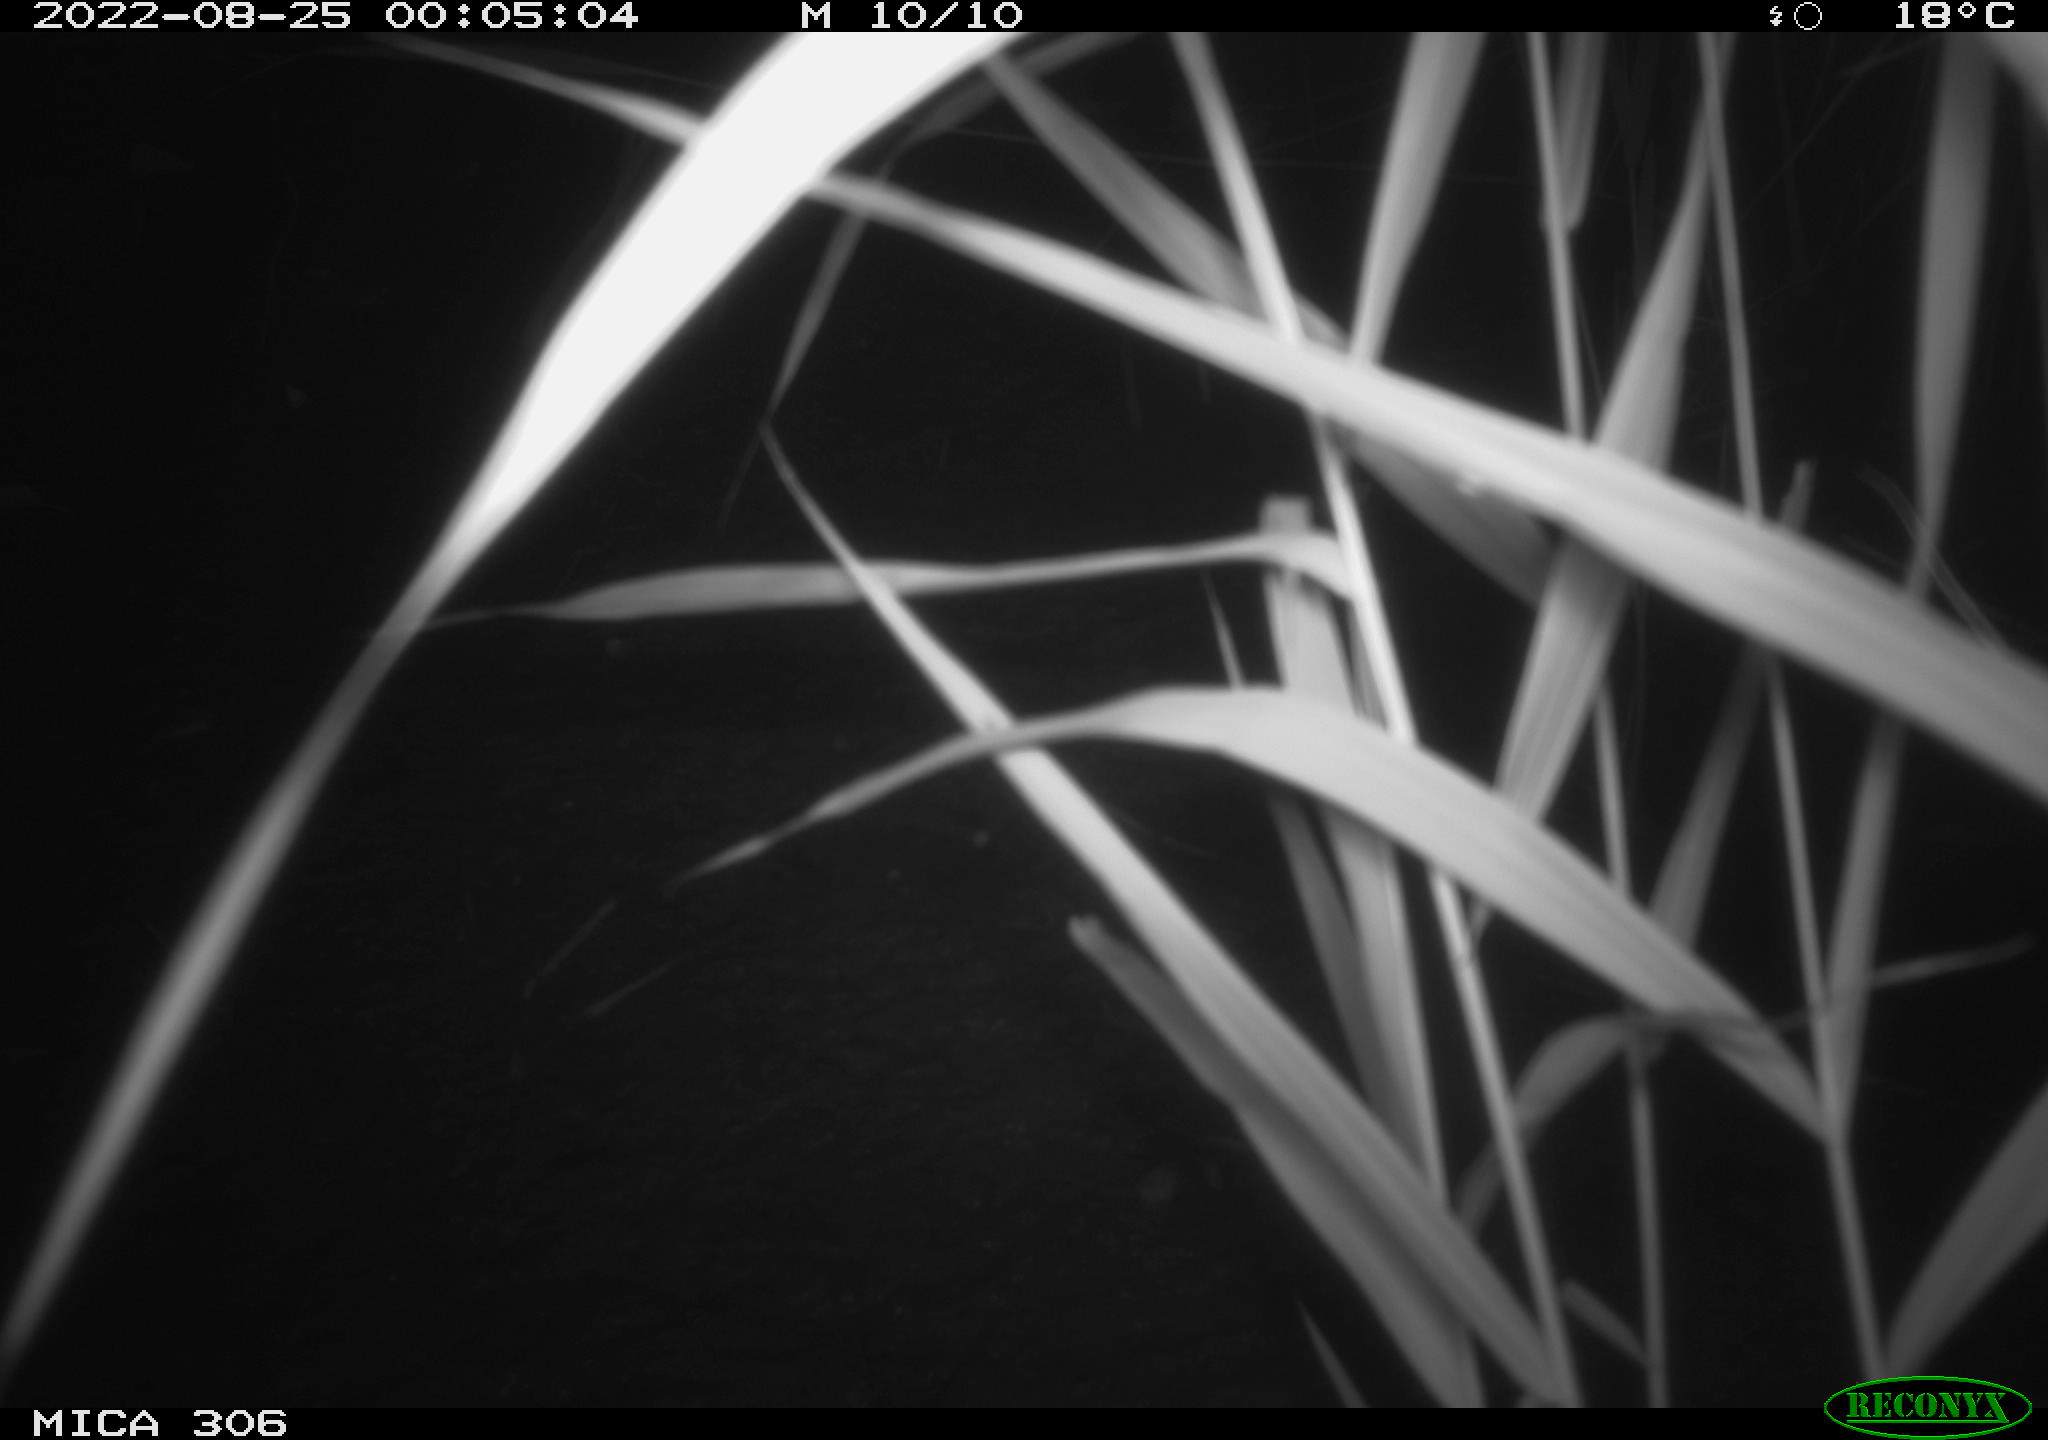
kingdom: Animalia
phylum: Chordata
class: Mammalia
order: Rodentia
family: Muridae
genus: Rattus
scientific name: Rattus norvegicus
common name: Brown rat
